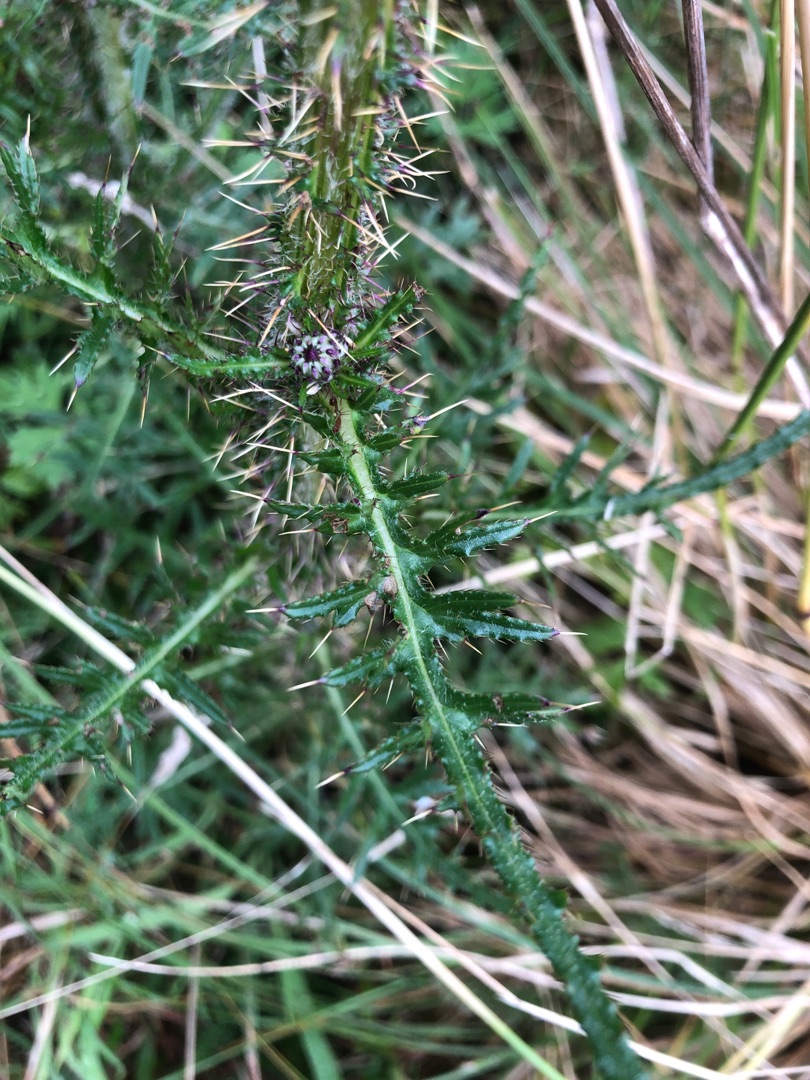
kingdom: Plantae
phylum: Tracheophyta
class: Magnoliopsida
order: Asterales
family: Asteraceae
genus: Carduus
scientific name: Carduus crispus
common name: Kruset tidsel
